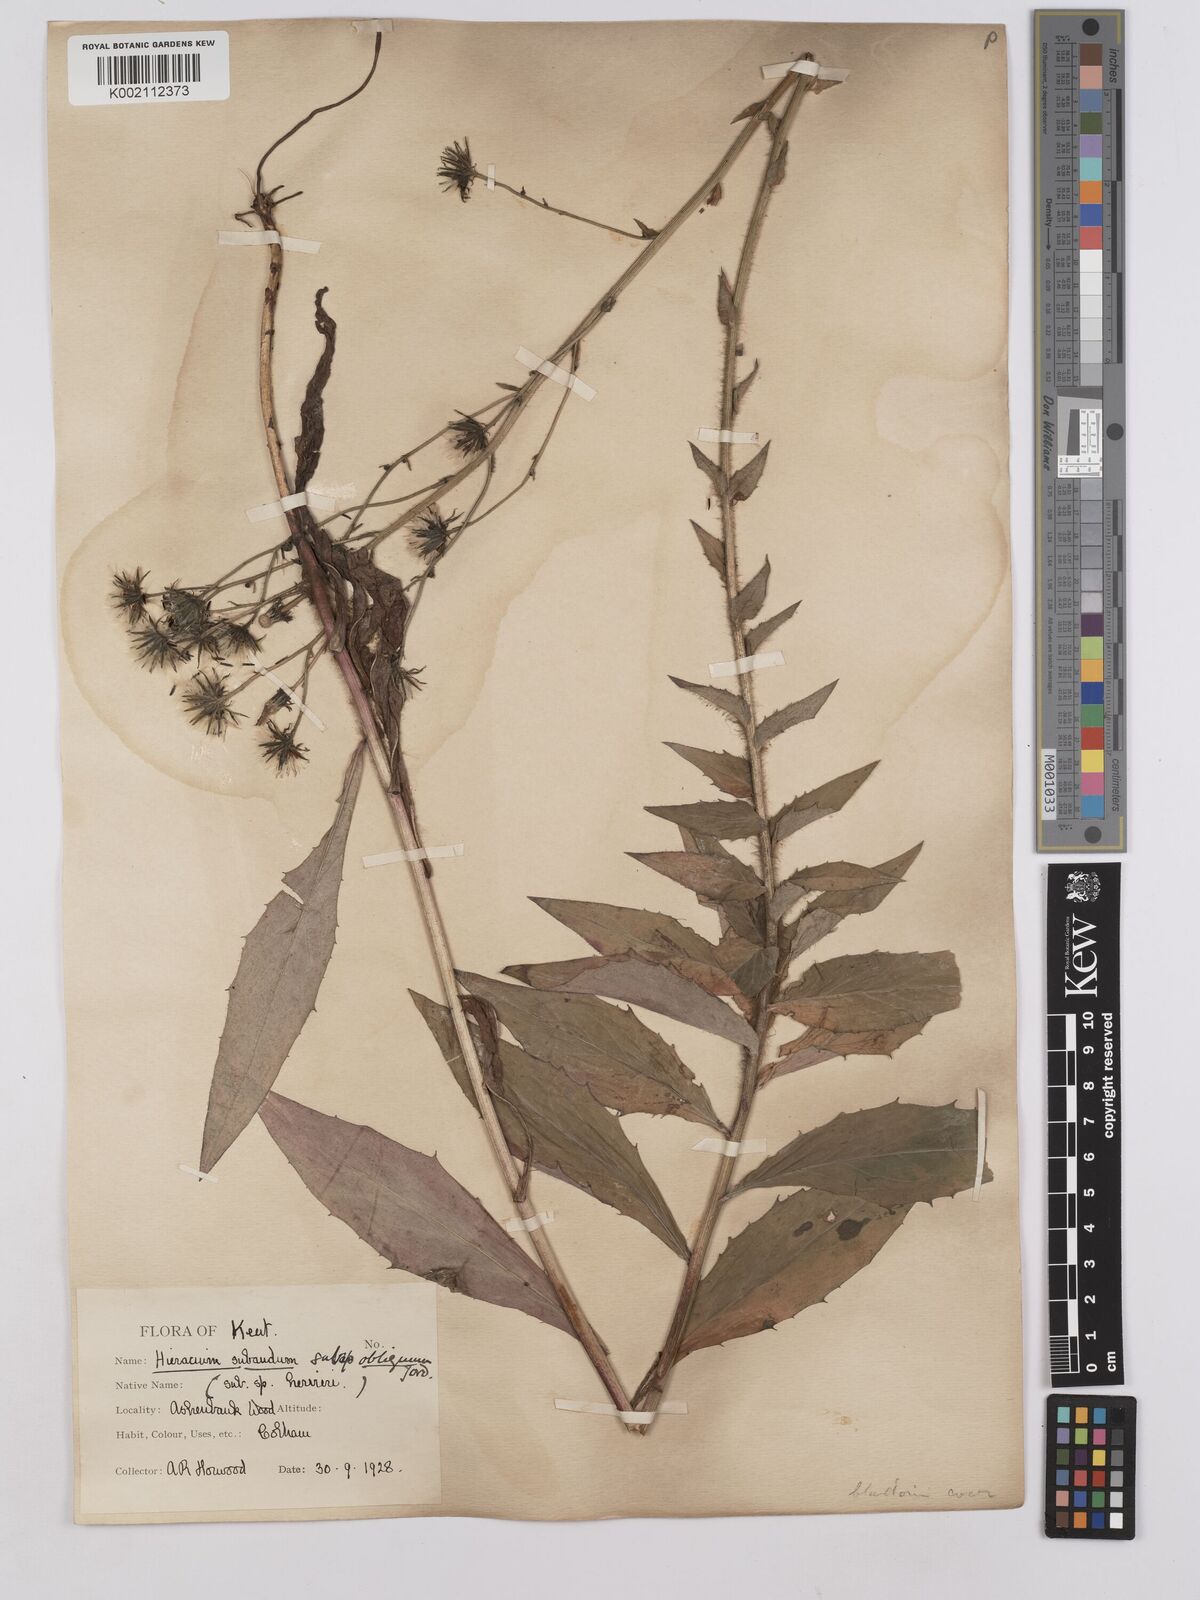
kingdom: Plantae
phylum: Tracheophyta
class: Magnoliopsida
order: Asterales
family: Asteraceae
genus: Hieracium
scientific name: Hieracium sabaudum
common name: New england hawkweed
